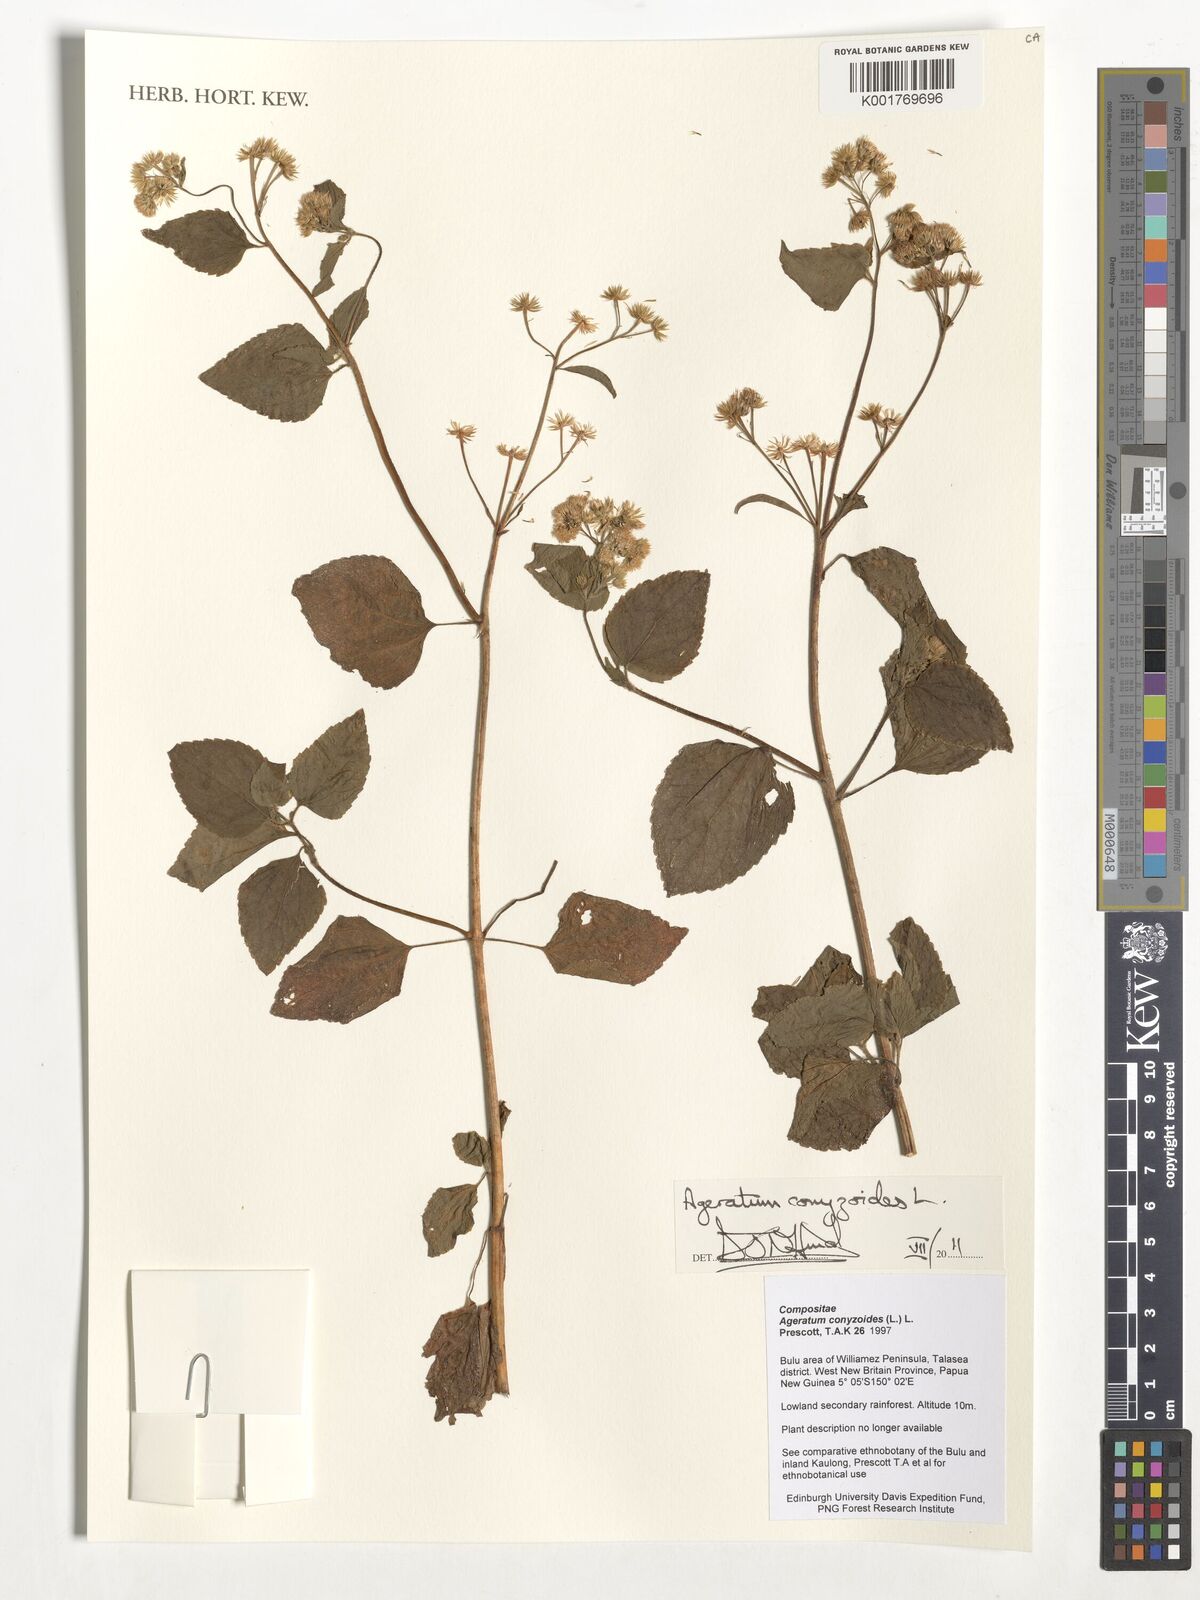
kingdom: Plantae
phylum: Tracheophyta
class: Magnoliopsida
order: Asterales
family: Asteraceae
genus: Ageratum
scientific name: Ageratum conyzoides
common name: Tropical whiteweed
